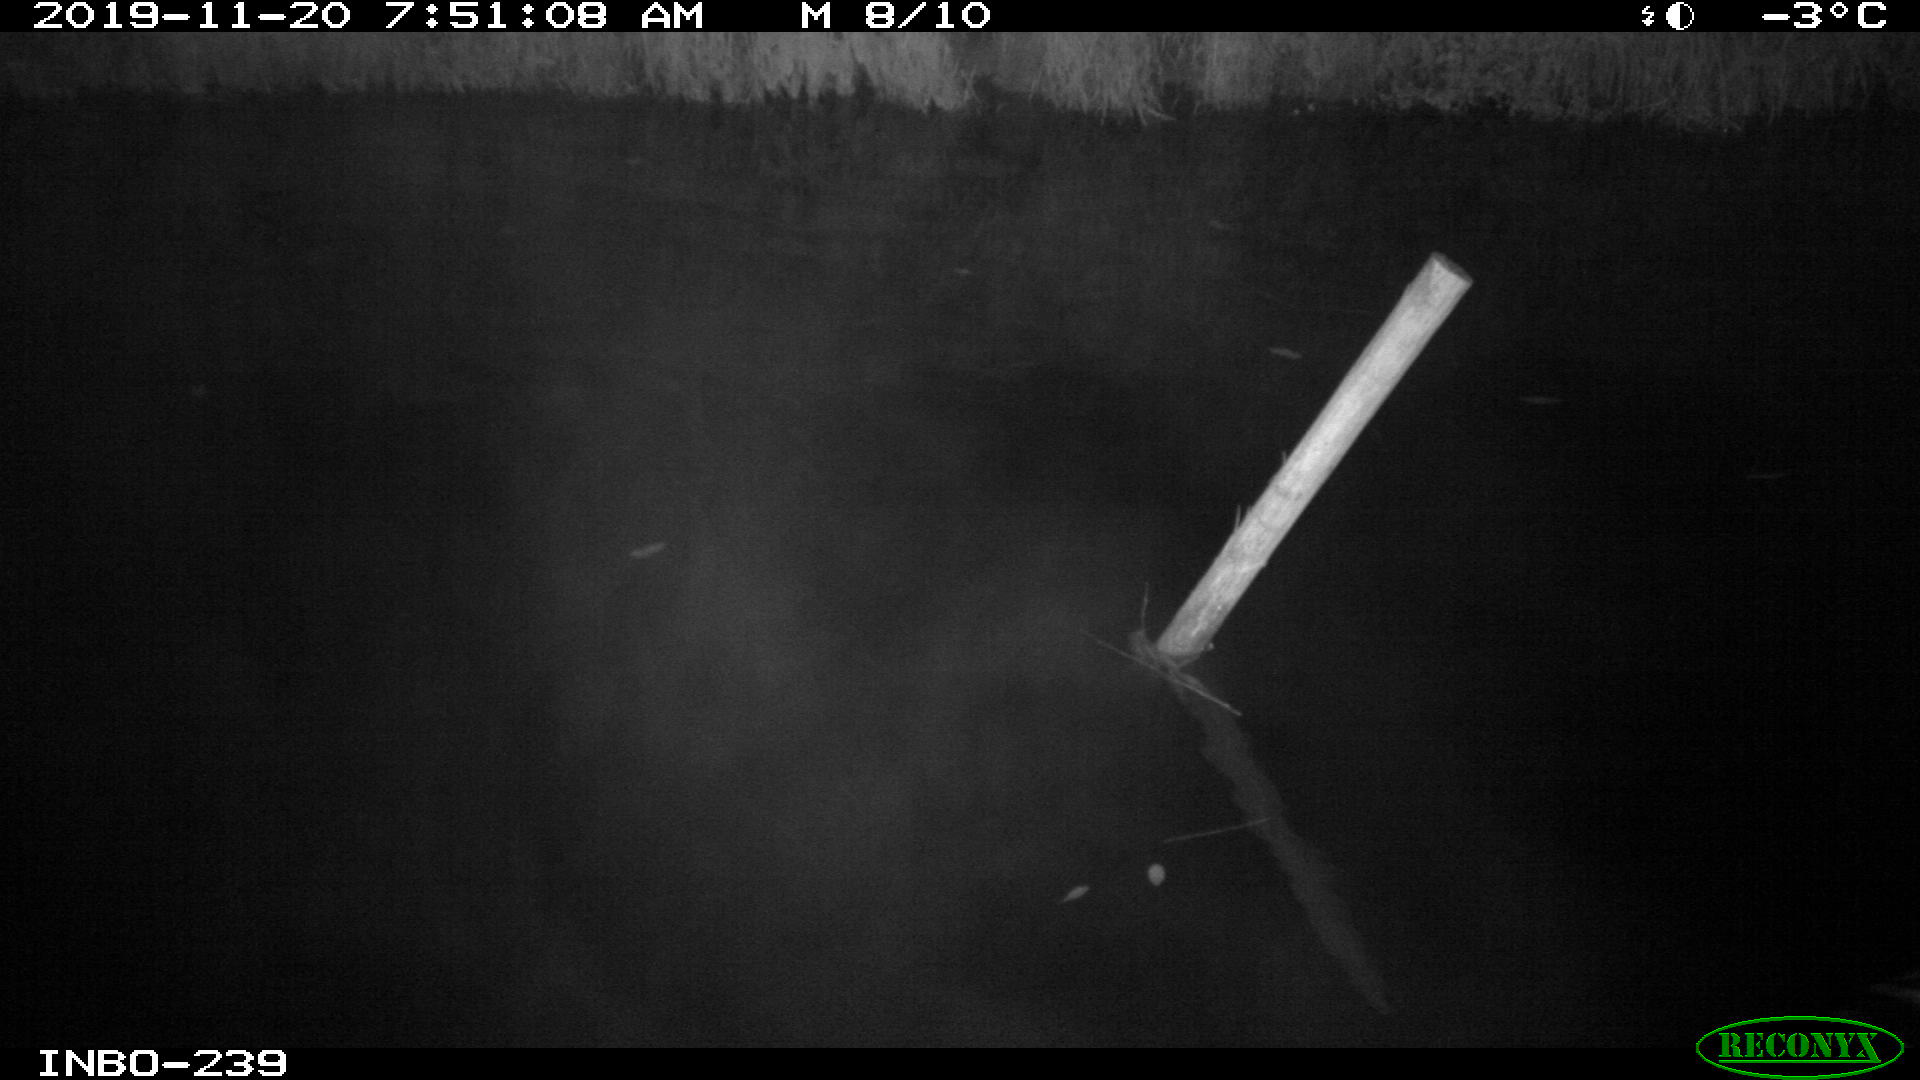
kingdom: Animalia
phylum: Chordata
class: Aves
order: Anseriformes
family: Anatidae
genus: Anas
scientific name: Anas platyrhynchos
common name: Mallard
